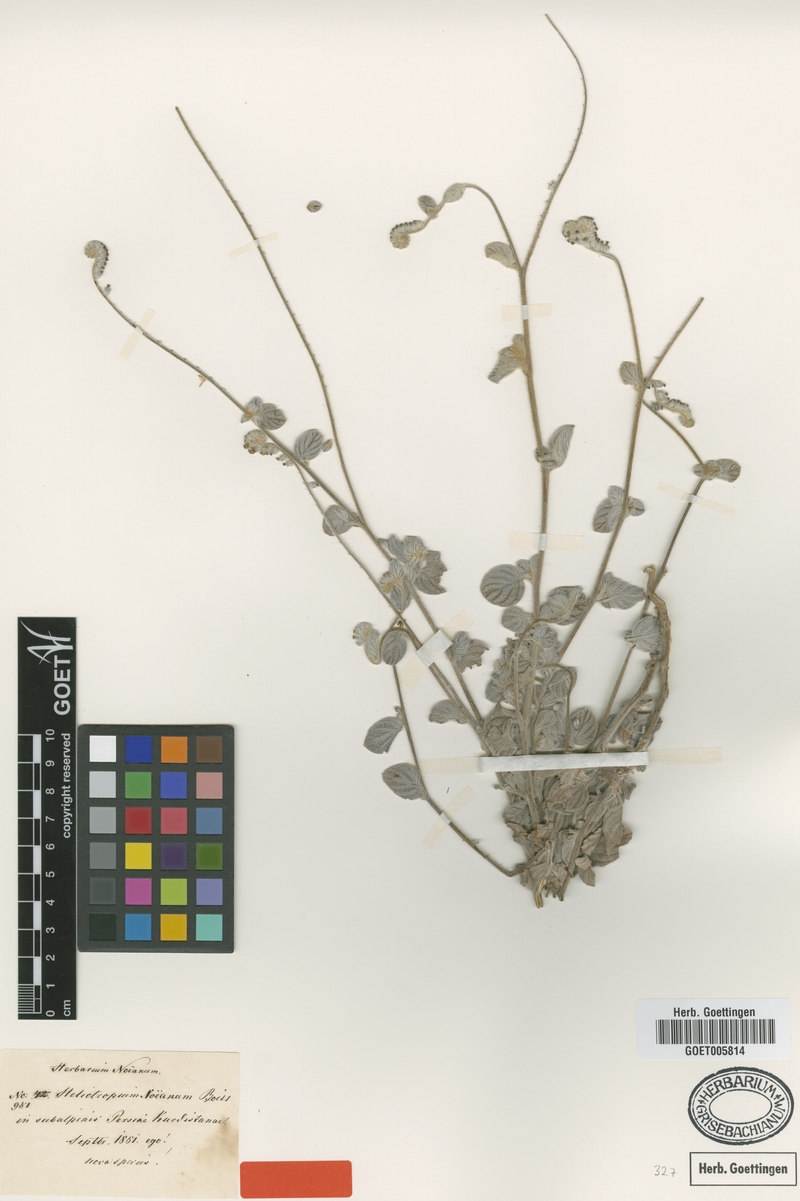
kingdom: Plantae
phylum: Tracheophyta
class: Magnoliopsida
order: Boraginales
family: Heliotropiaceae
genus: Heliotropium
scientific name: Heliotropium noeanum
